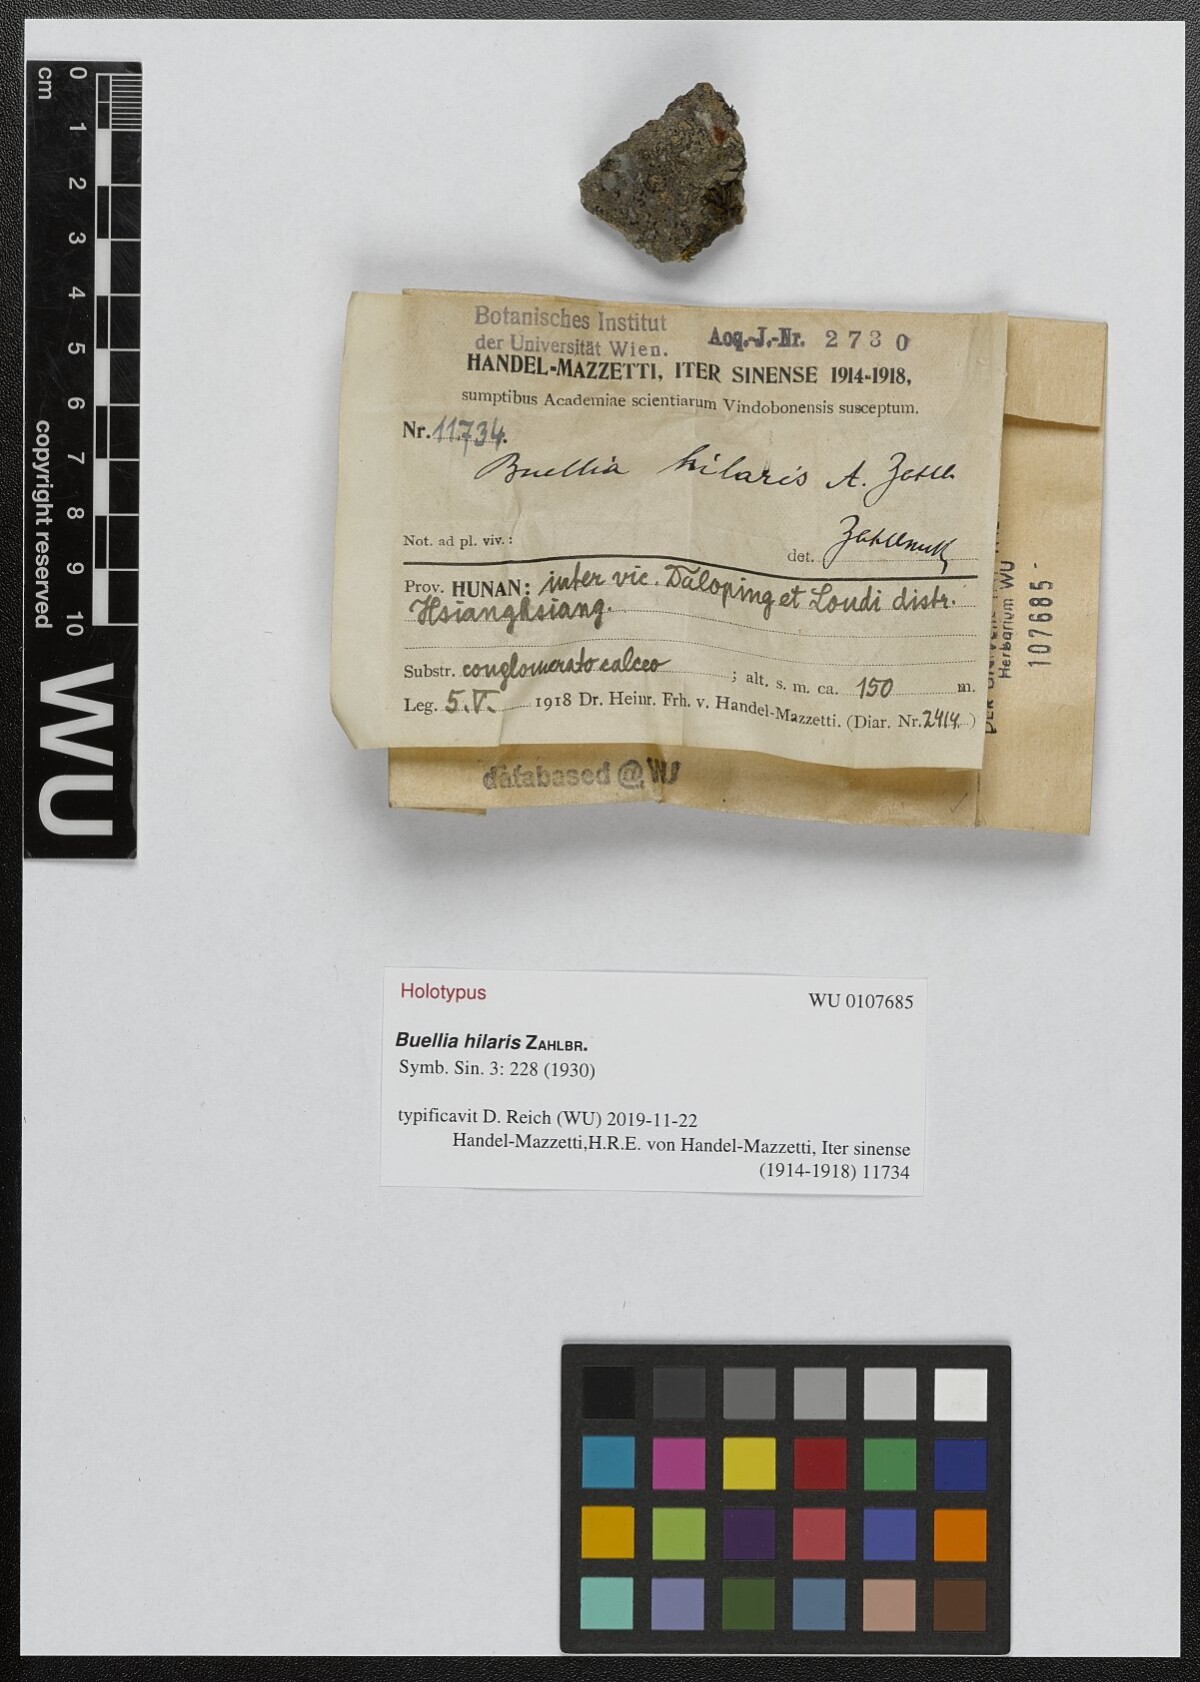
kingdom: Fungi
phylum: Ascomycota
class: Lecanoromycetes
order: Caliciales
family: Physciaceae
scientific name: Physciaceae
